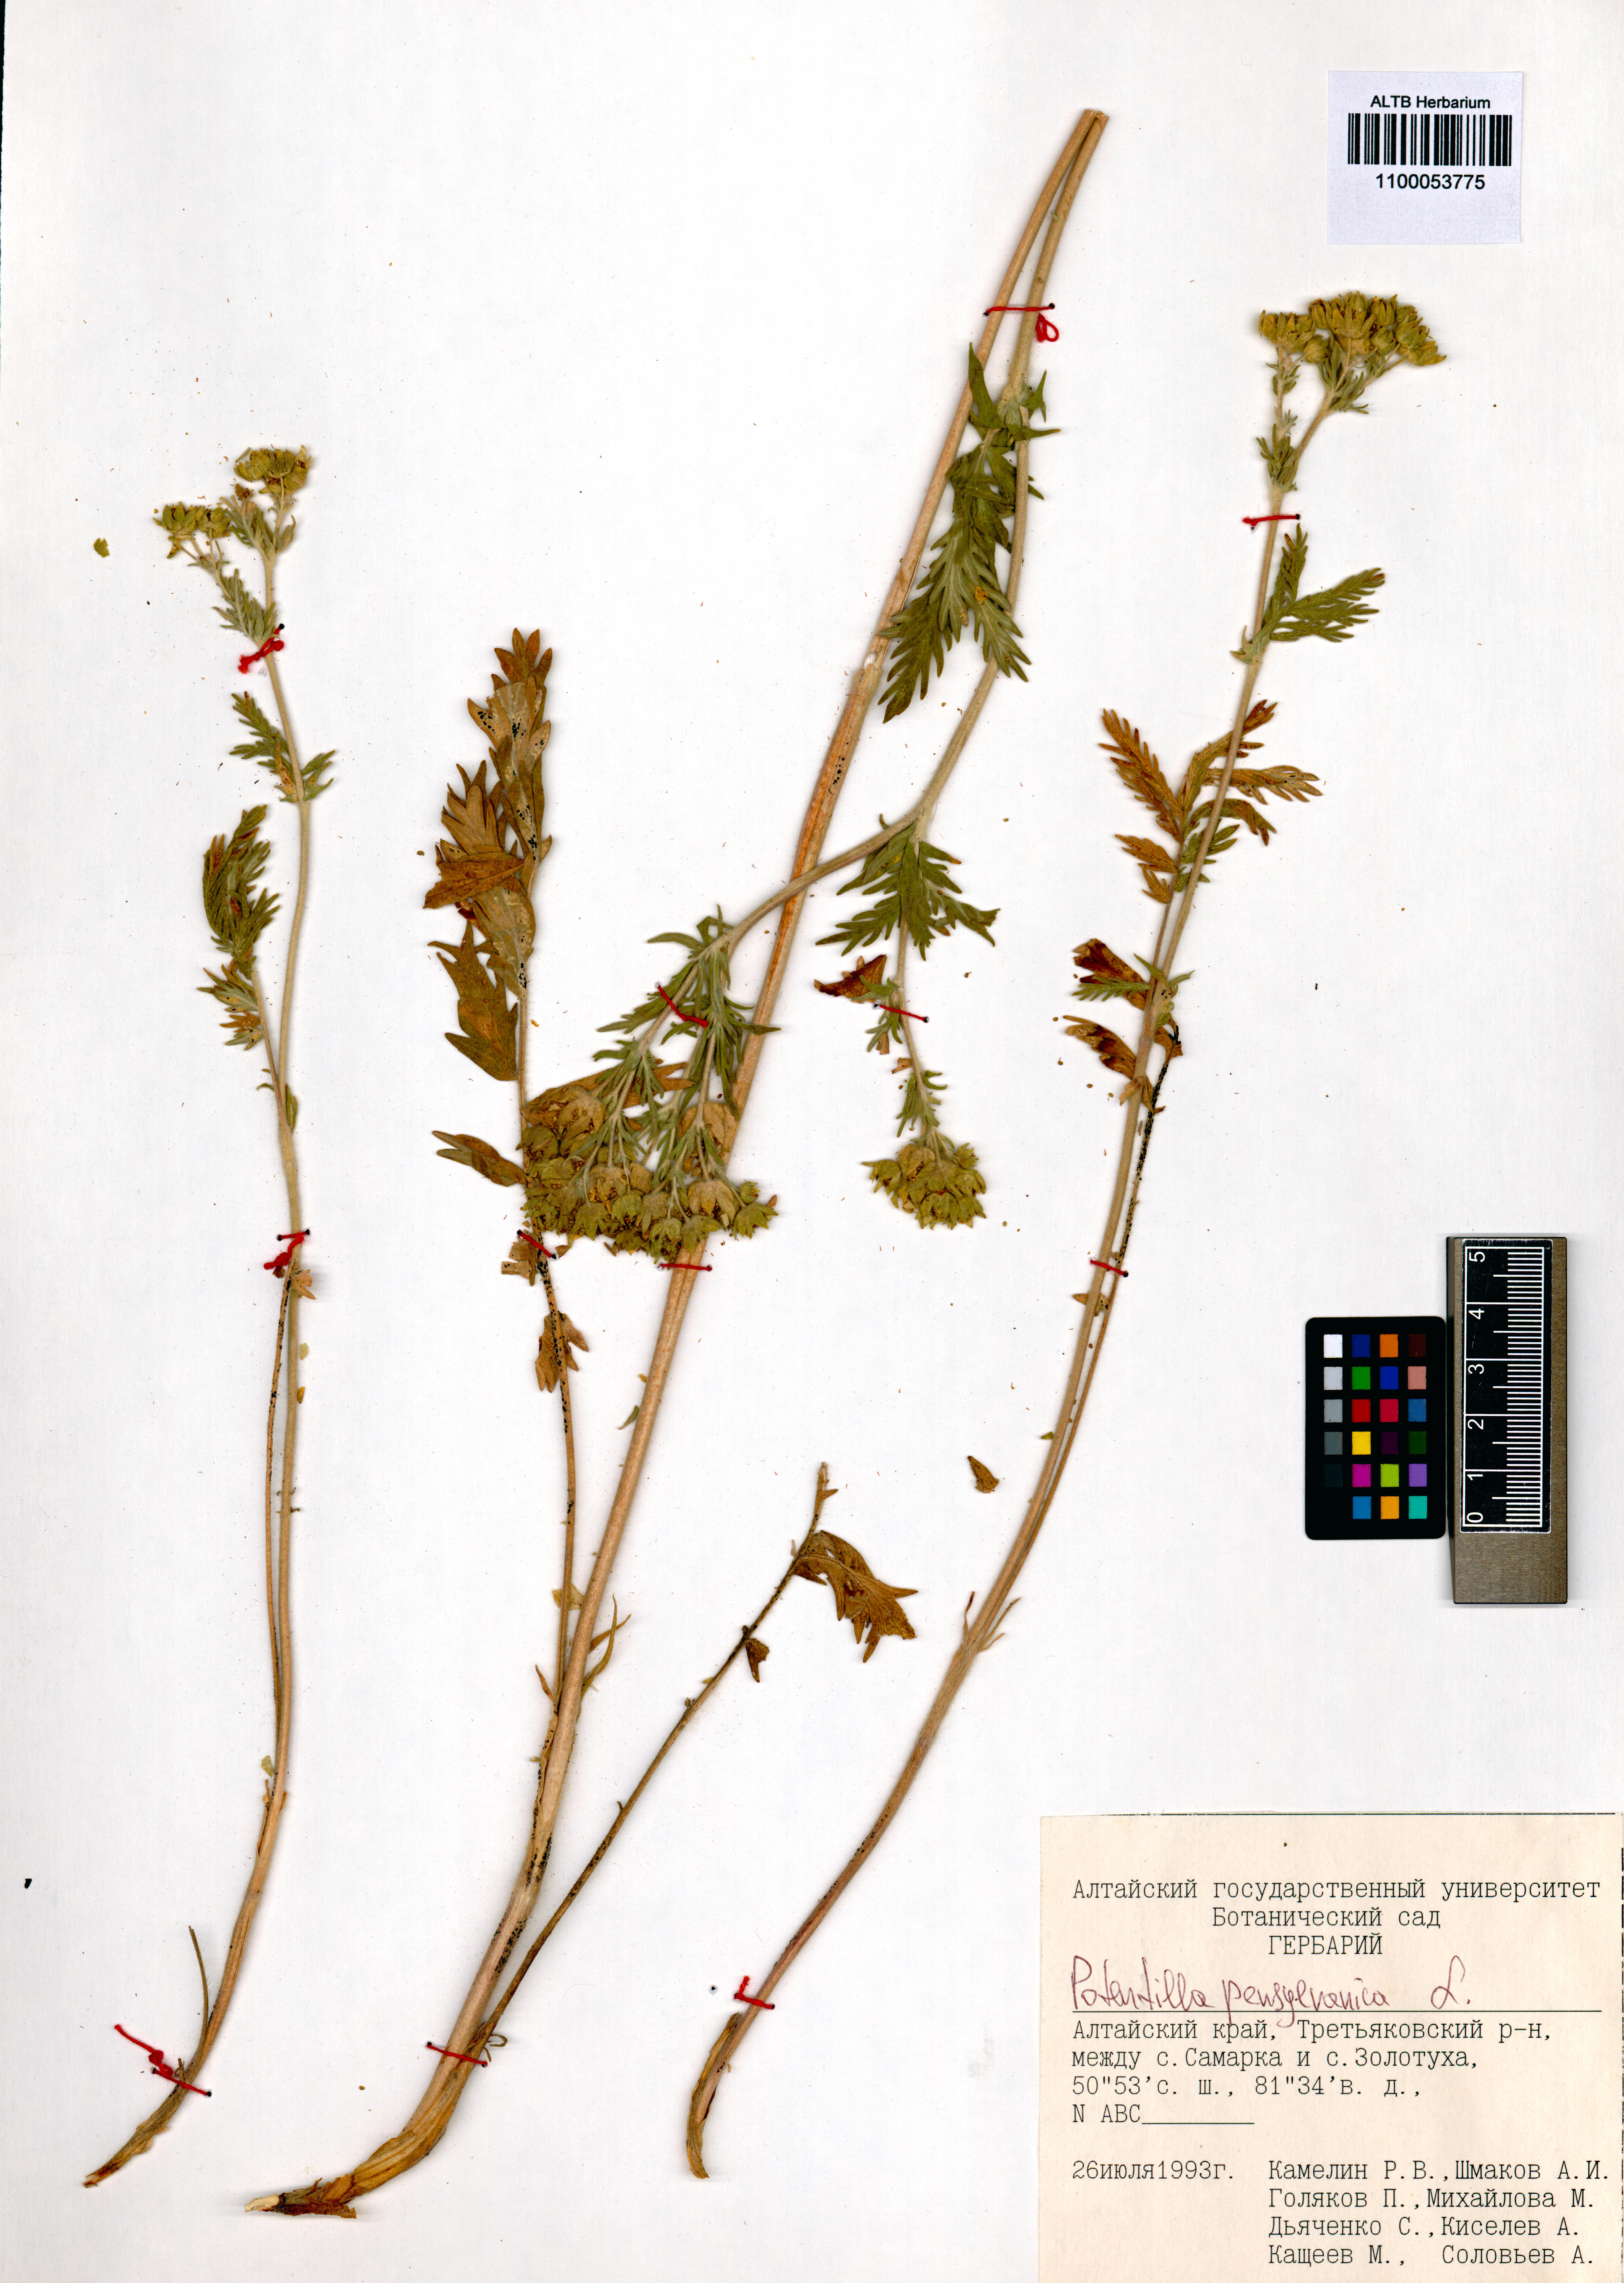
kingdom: Plantae
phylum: Tracheophyta
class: Magnoliopsida
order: Rosales
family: Rosaceae
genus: Potentilla
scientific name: Potentilla pensylvanica
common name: Pennsylvania cinquefoil
